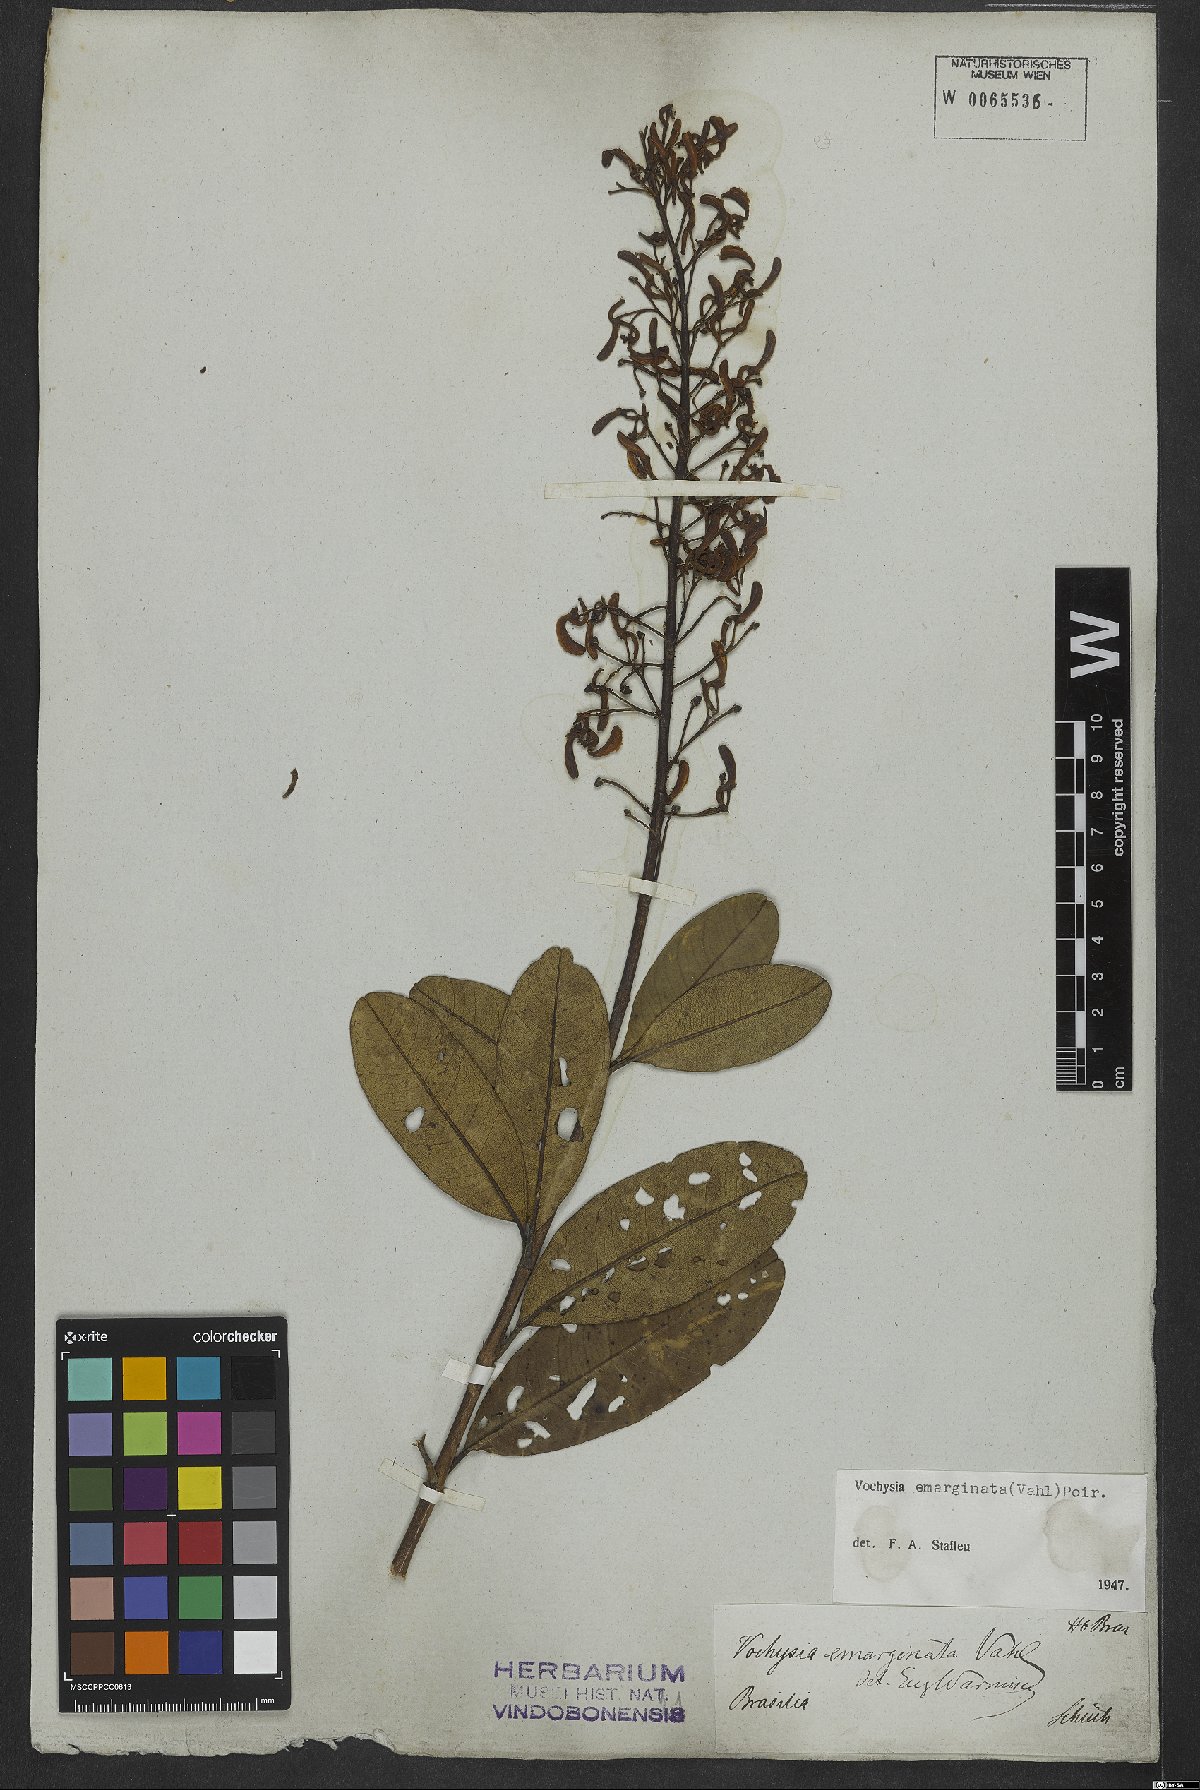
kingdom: Plantae
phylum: Tracheophyta
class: Magnoliopsida
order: Myrtales
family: Vochysiaceae
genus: Vochysia
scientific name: Vochysia emarginata
